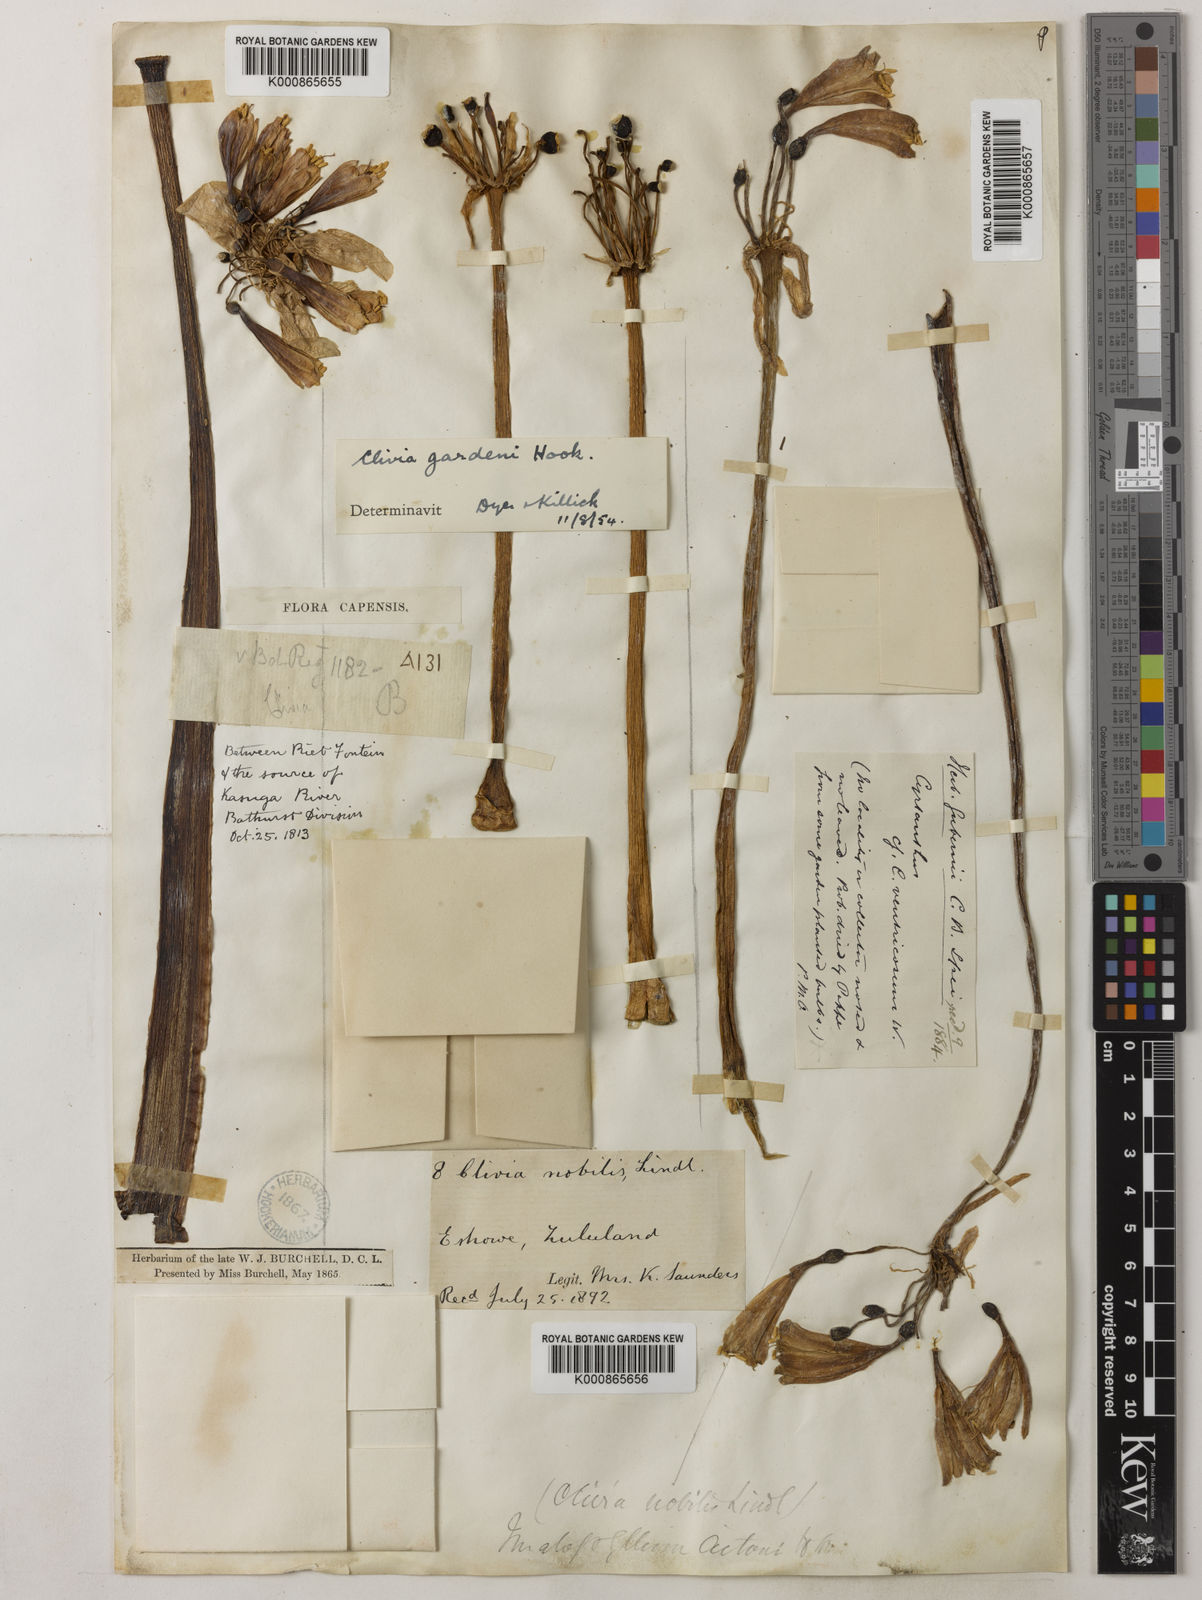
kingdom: Plantae
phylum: Tracheophyta
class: Liliopsida
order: Asparagales
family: Amaryllidaceae
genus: Clivia
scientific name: Clivia nobilis
